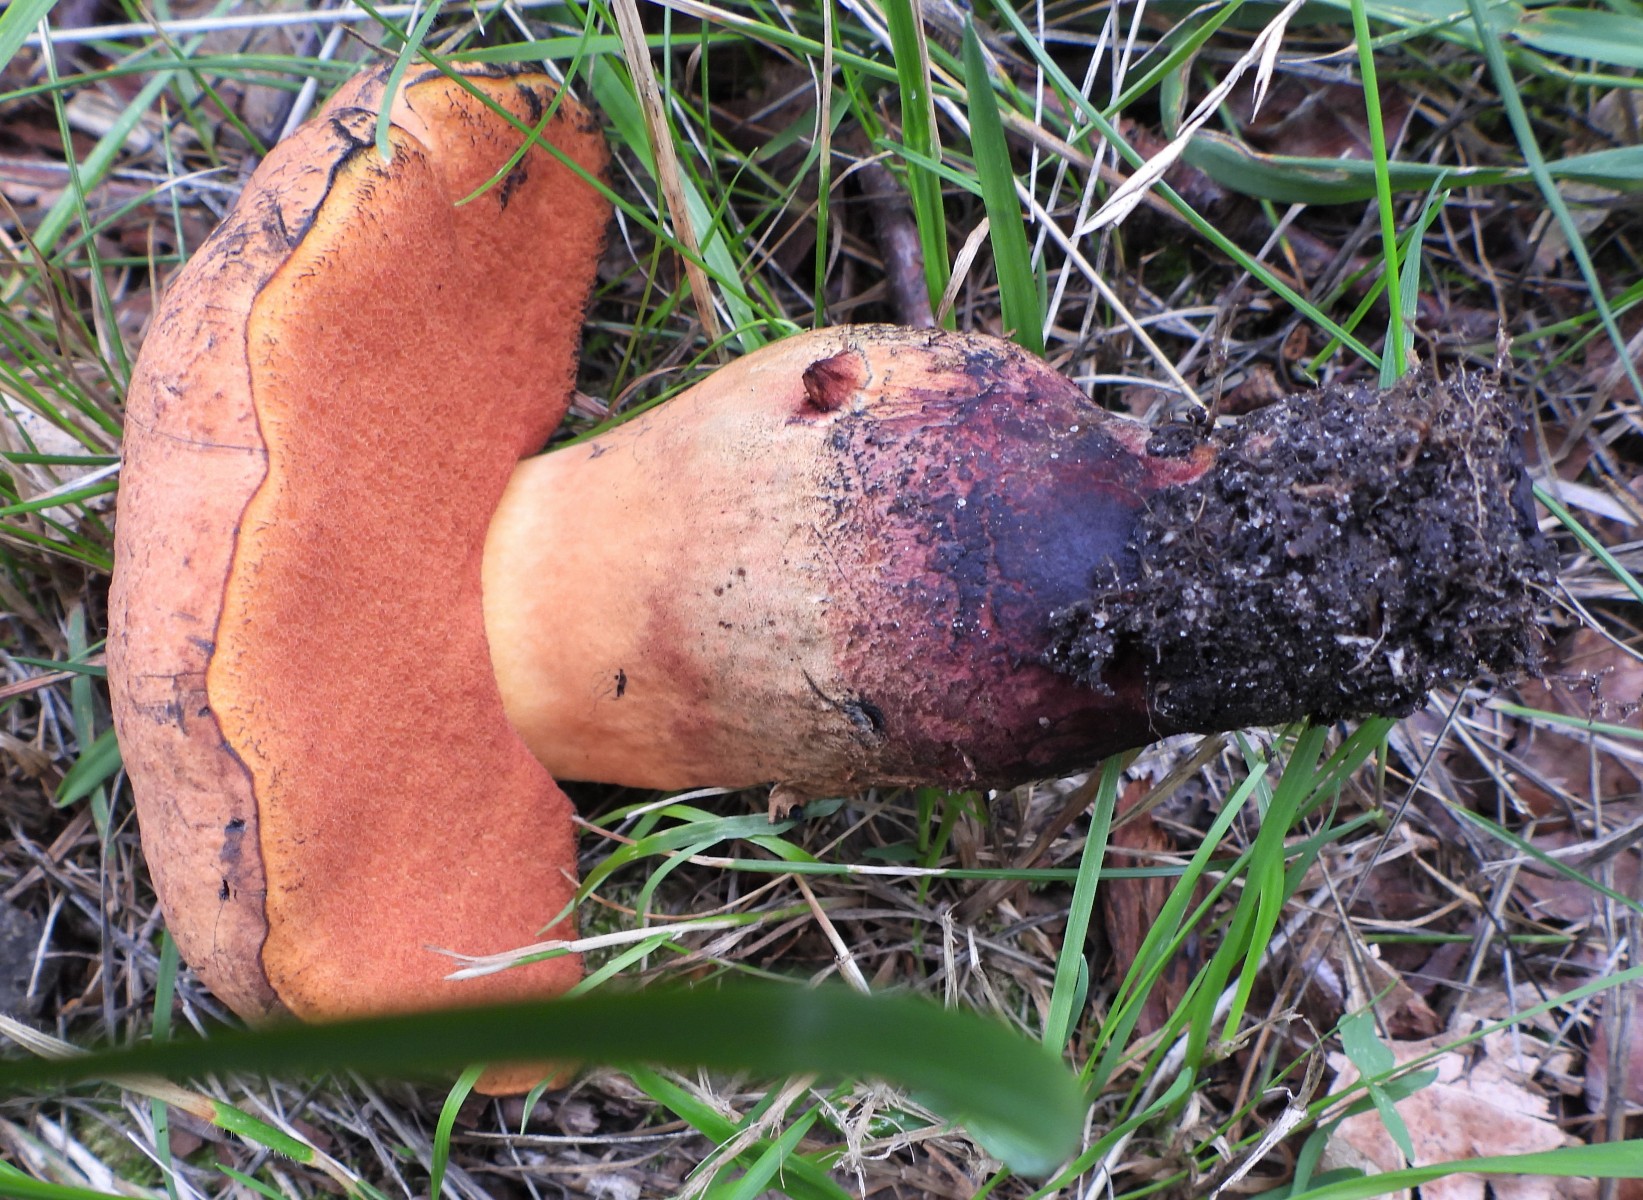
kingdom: Fungi
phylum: Basidiomycota
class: Agaricomycetes
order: Boletales
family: Boletaceae
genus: Suillellus
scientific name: Suillellus queletii
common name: glatstokket indigorørhat
